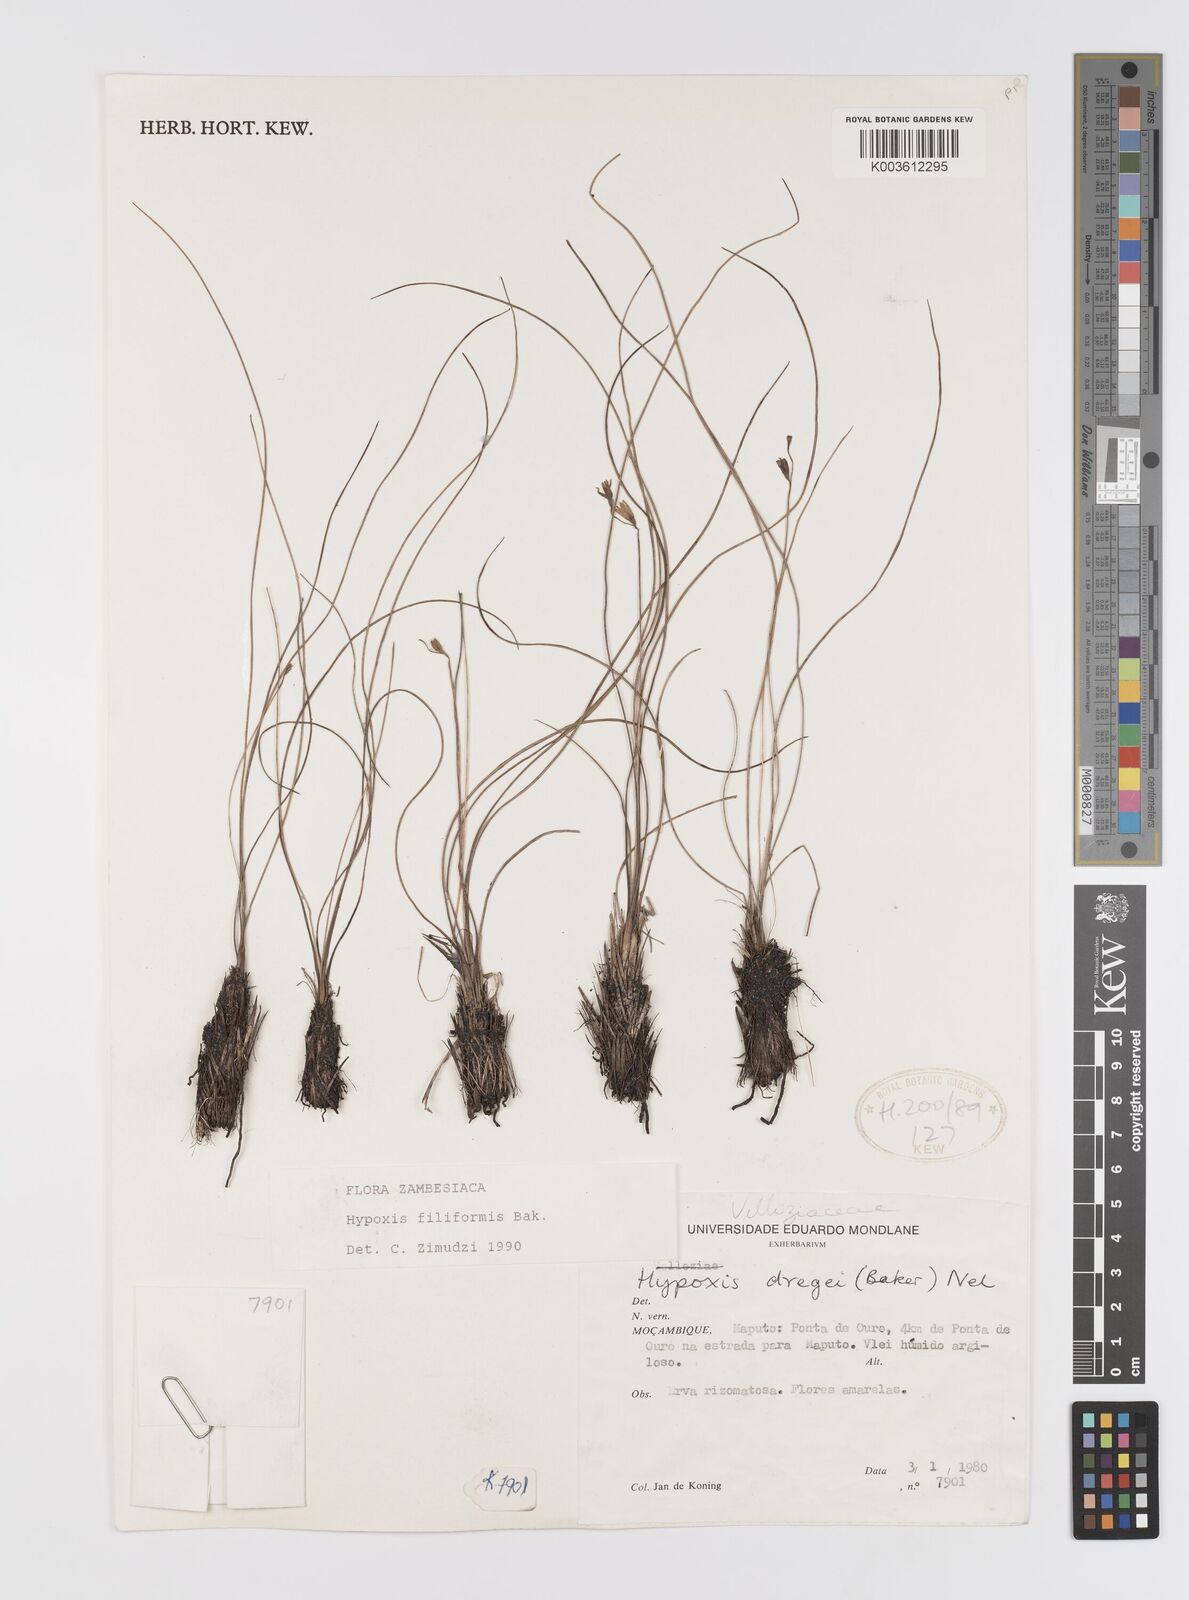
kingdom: Plantae
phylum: Tracheophyta
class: Liliopsida
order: Asparagales
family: Hypoxidaceae
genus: Hypoxis
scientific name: Hypoxis filiformis
